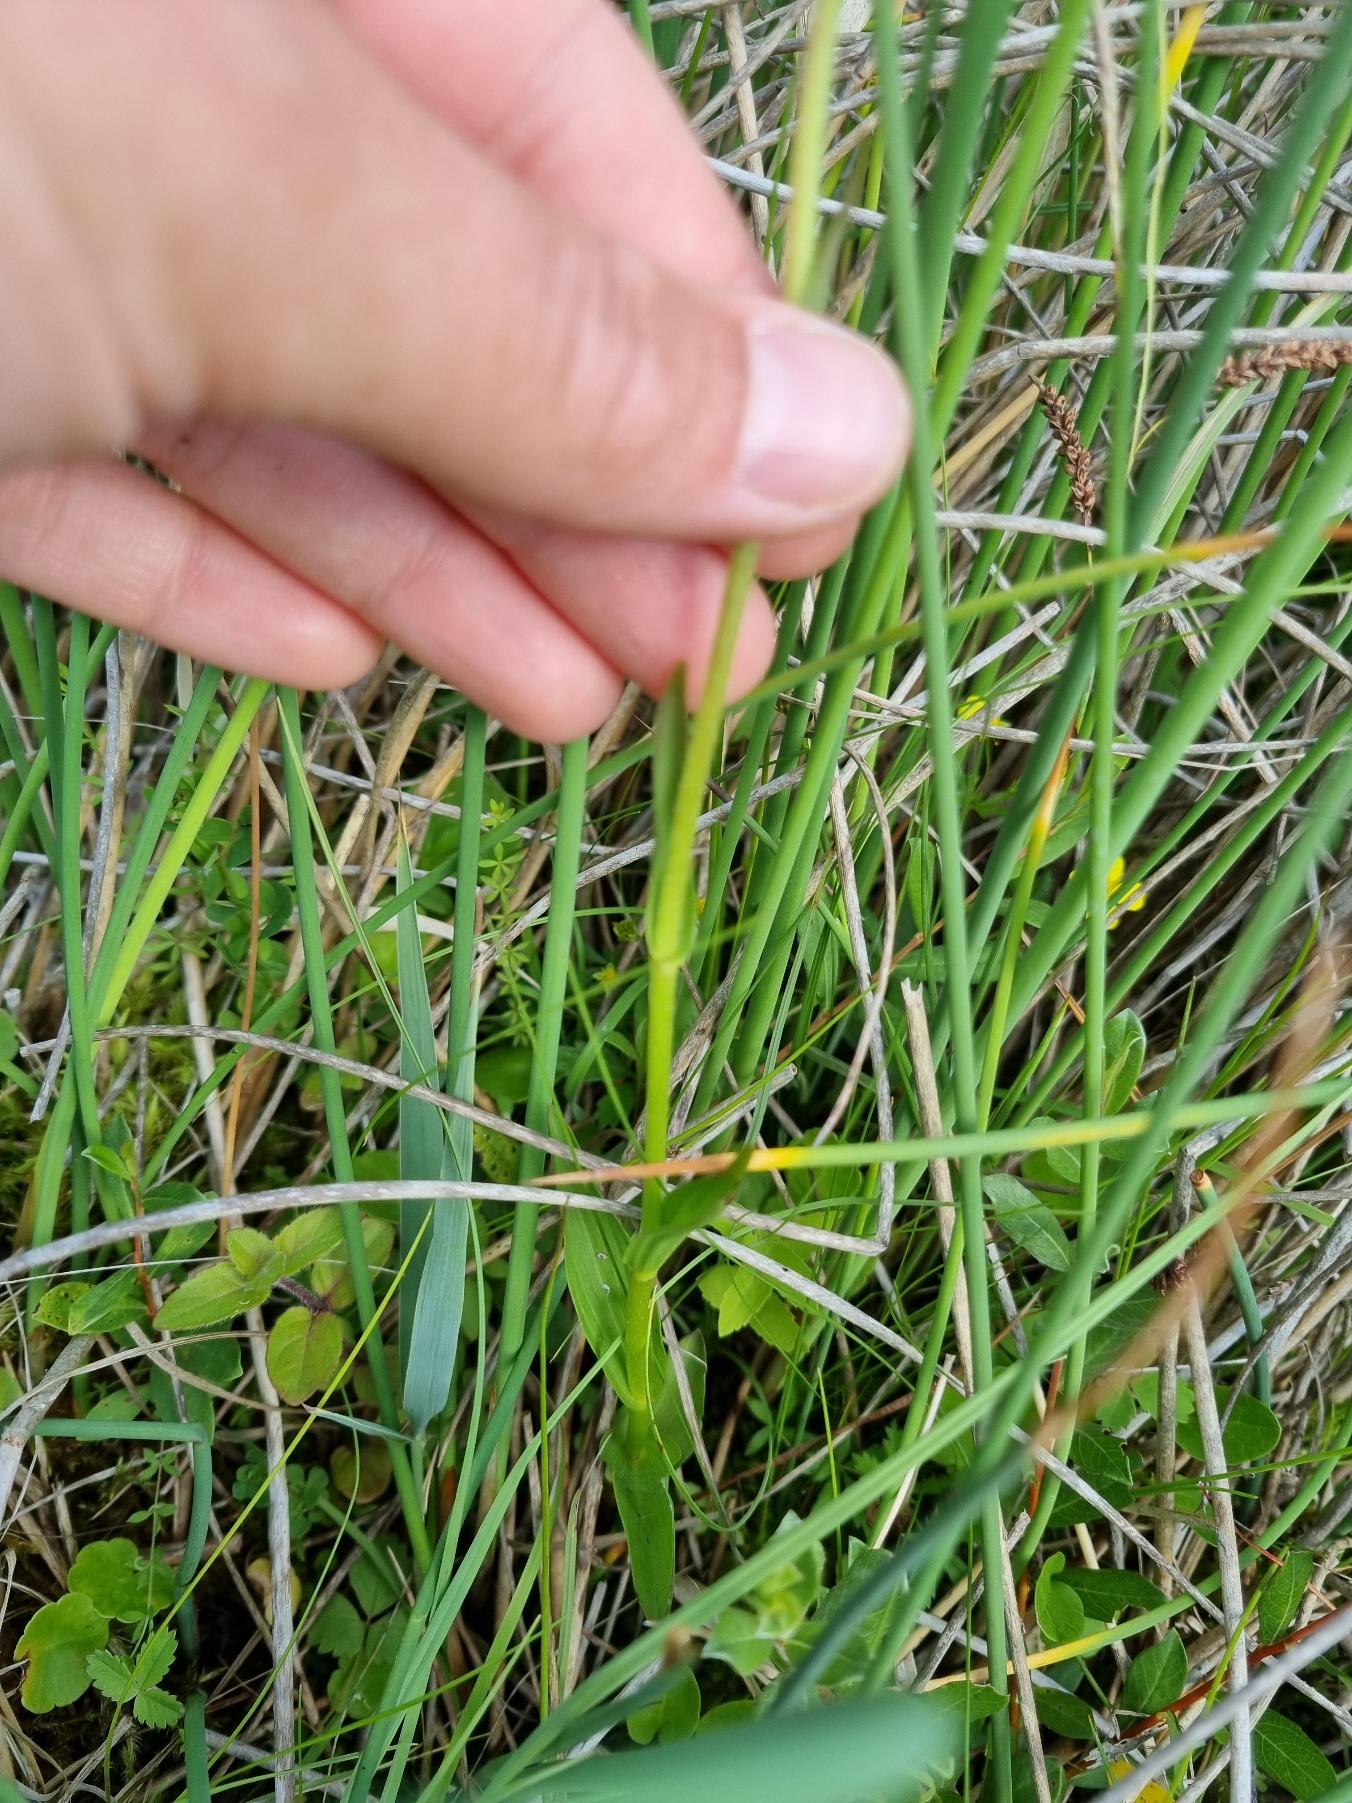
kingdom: Plantae
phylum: Tracheophyta
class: Liliopsida
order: Asparagales
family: Orchidaceae
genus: Epipactis
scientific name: Epipactis palustris
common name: Sump-hullæbe
